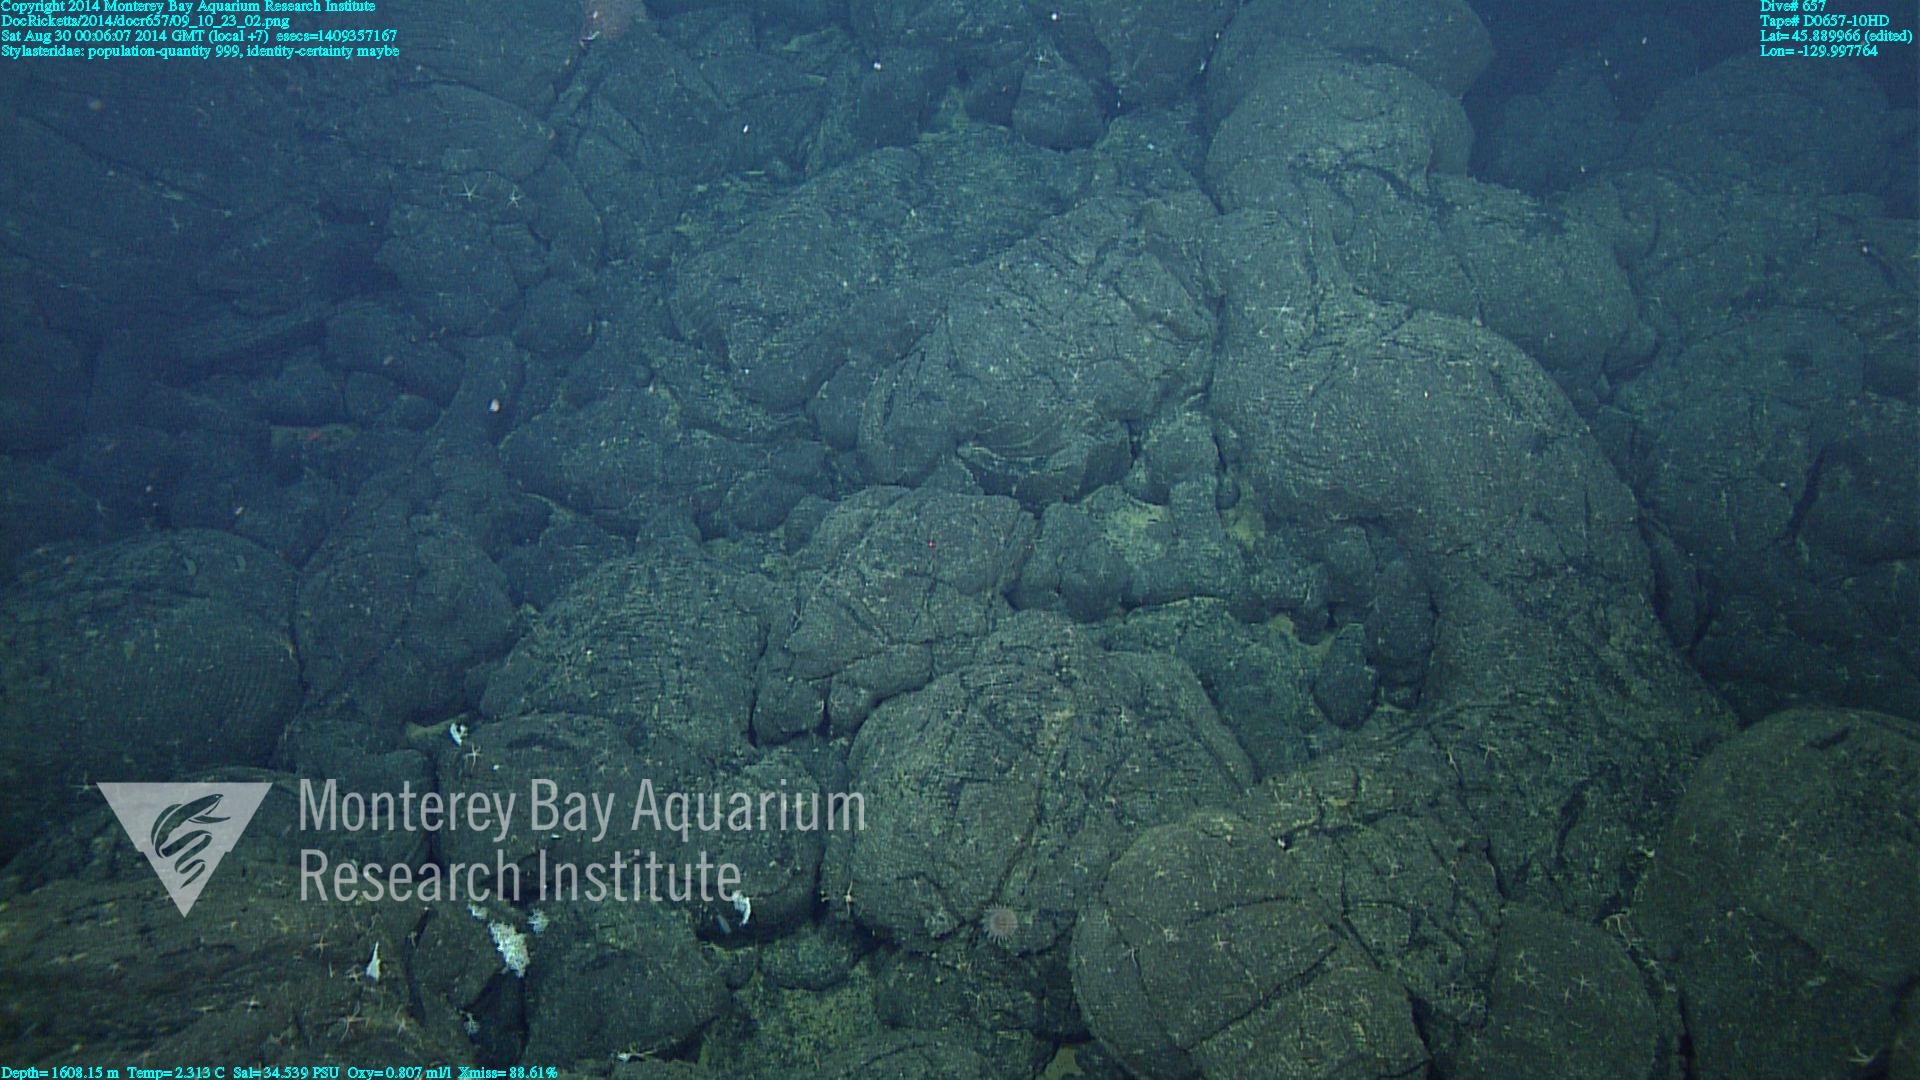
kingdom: Animalia
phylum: Cnidaria
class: Hydrozoa
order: Anthoathecata
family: Stylasteridae
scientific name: Stylasteridae
